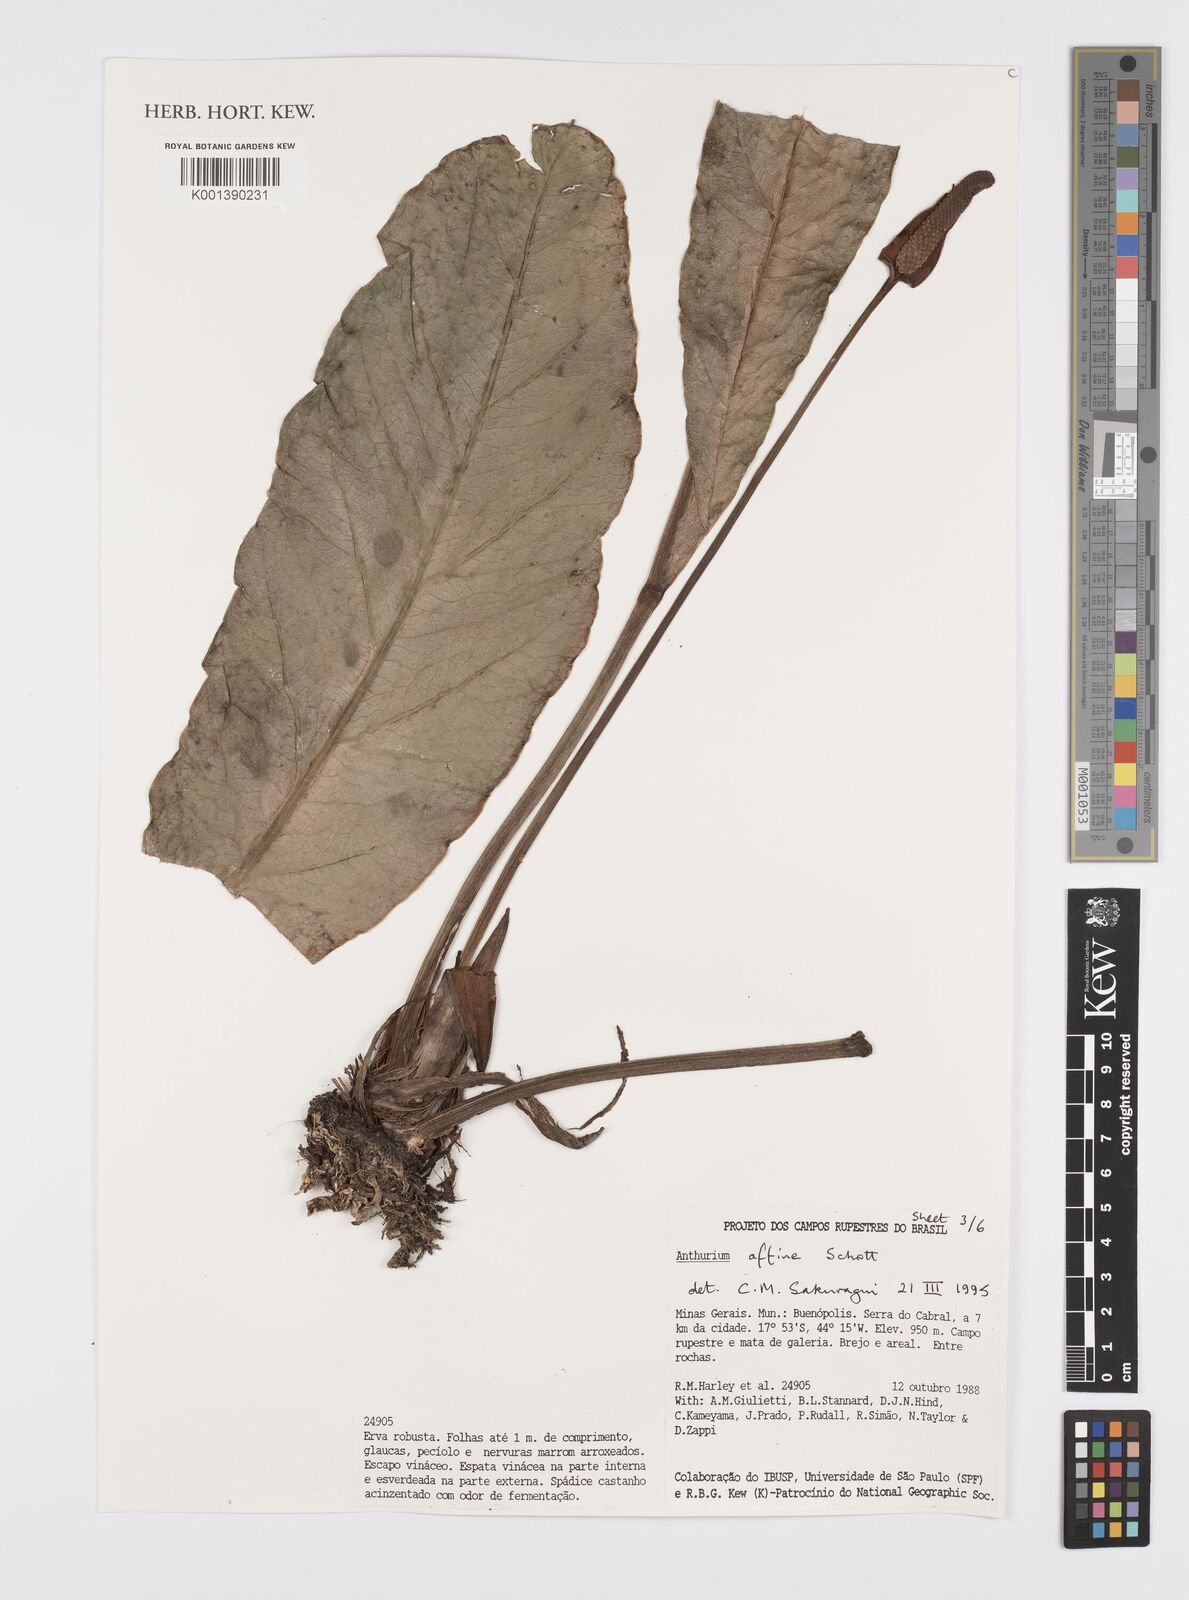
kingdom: Plantae
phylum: Tracheophyta
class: Liliopsida
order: Alismatales
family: Araceae
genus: Anthurium
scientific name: Anthurium affine
